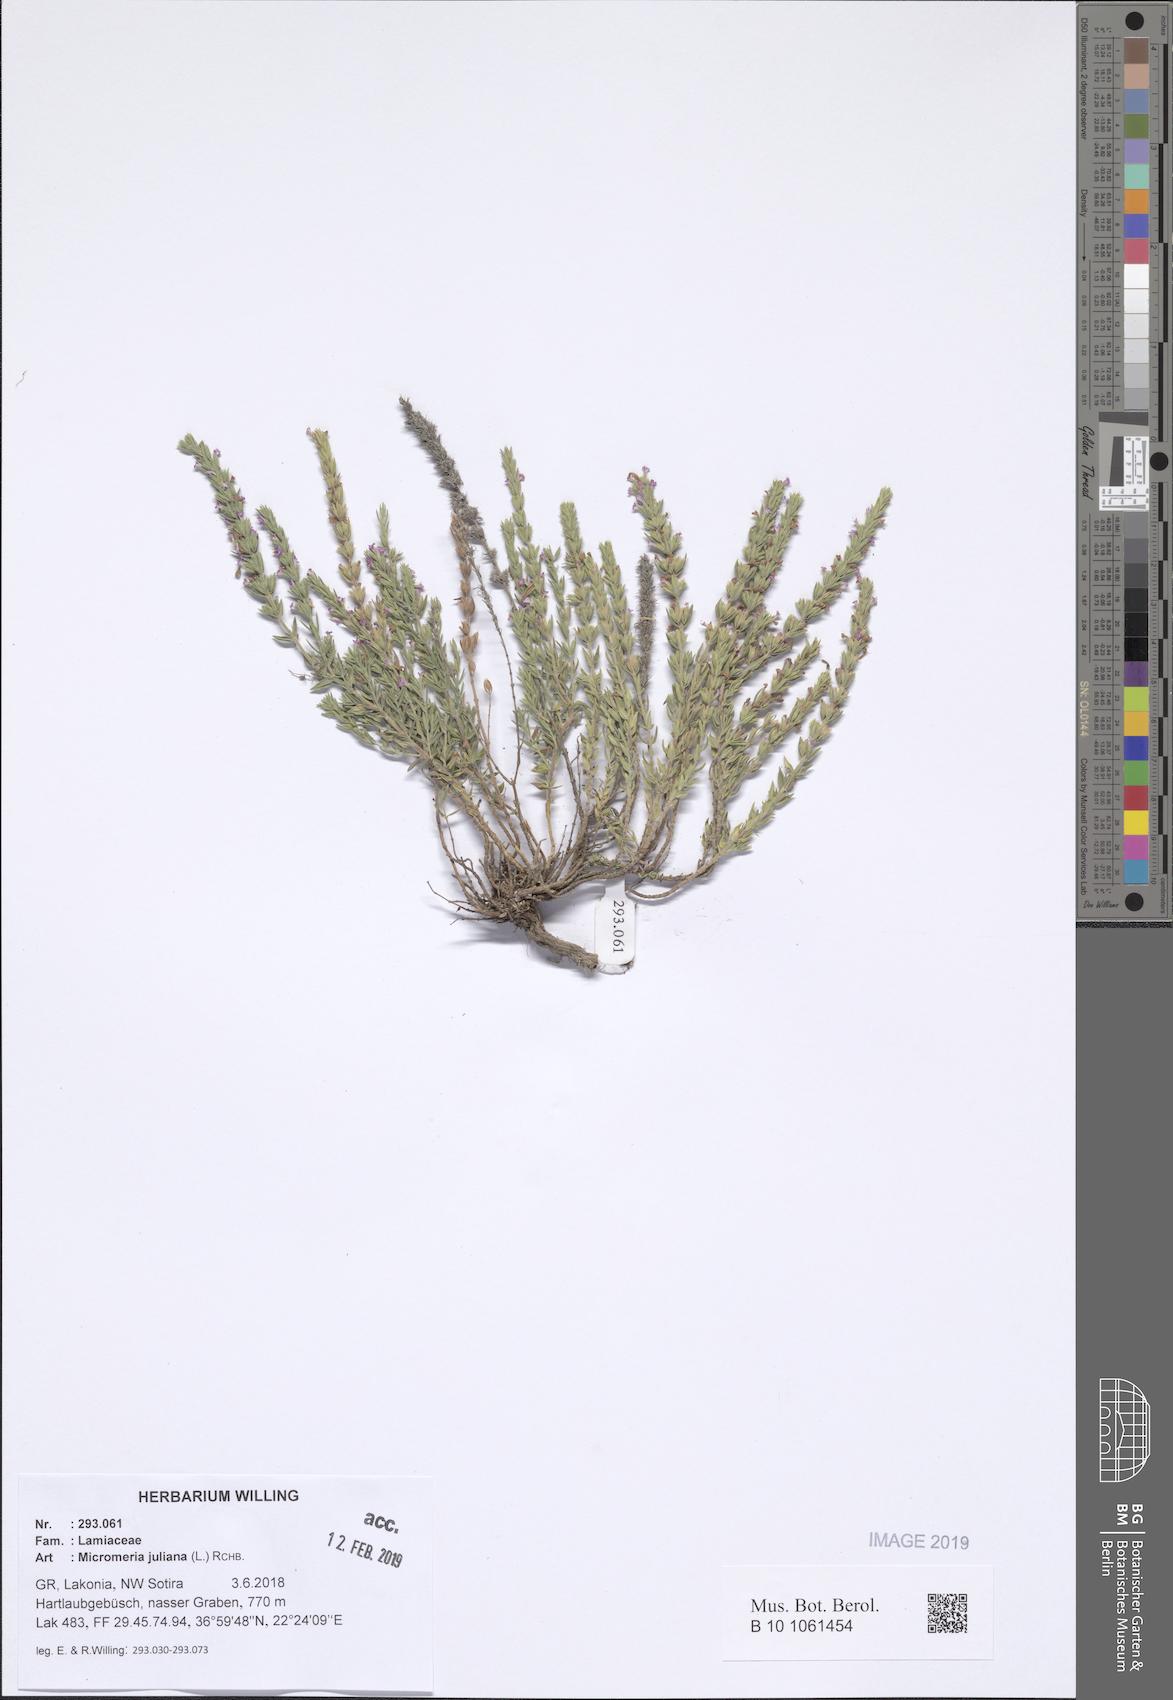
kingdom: Plantae
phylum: Tracheophyta
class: Magnoliopsida
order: Lamiales
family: Lamiaceae
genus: Micromeria
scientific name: Micromeria juliana
